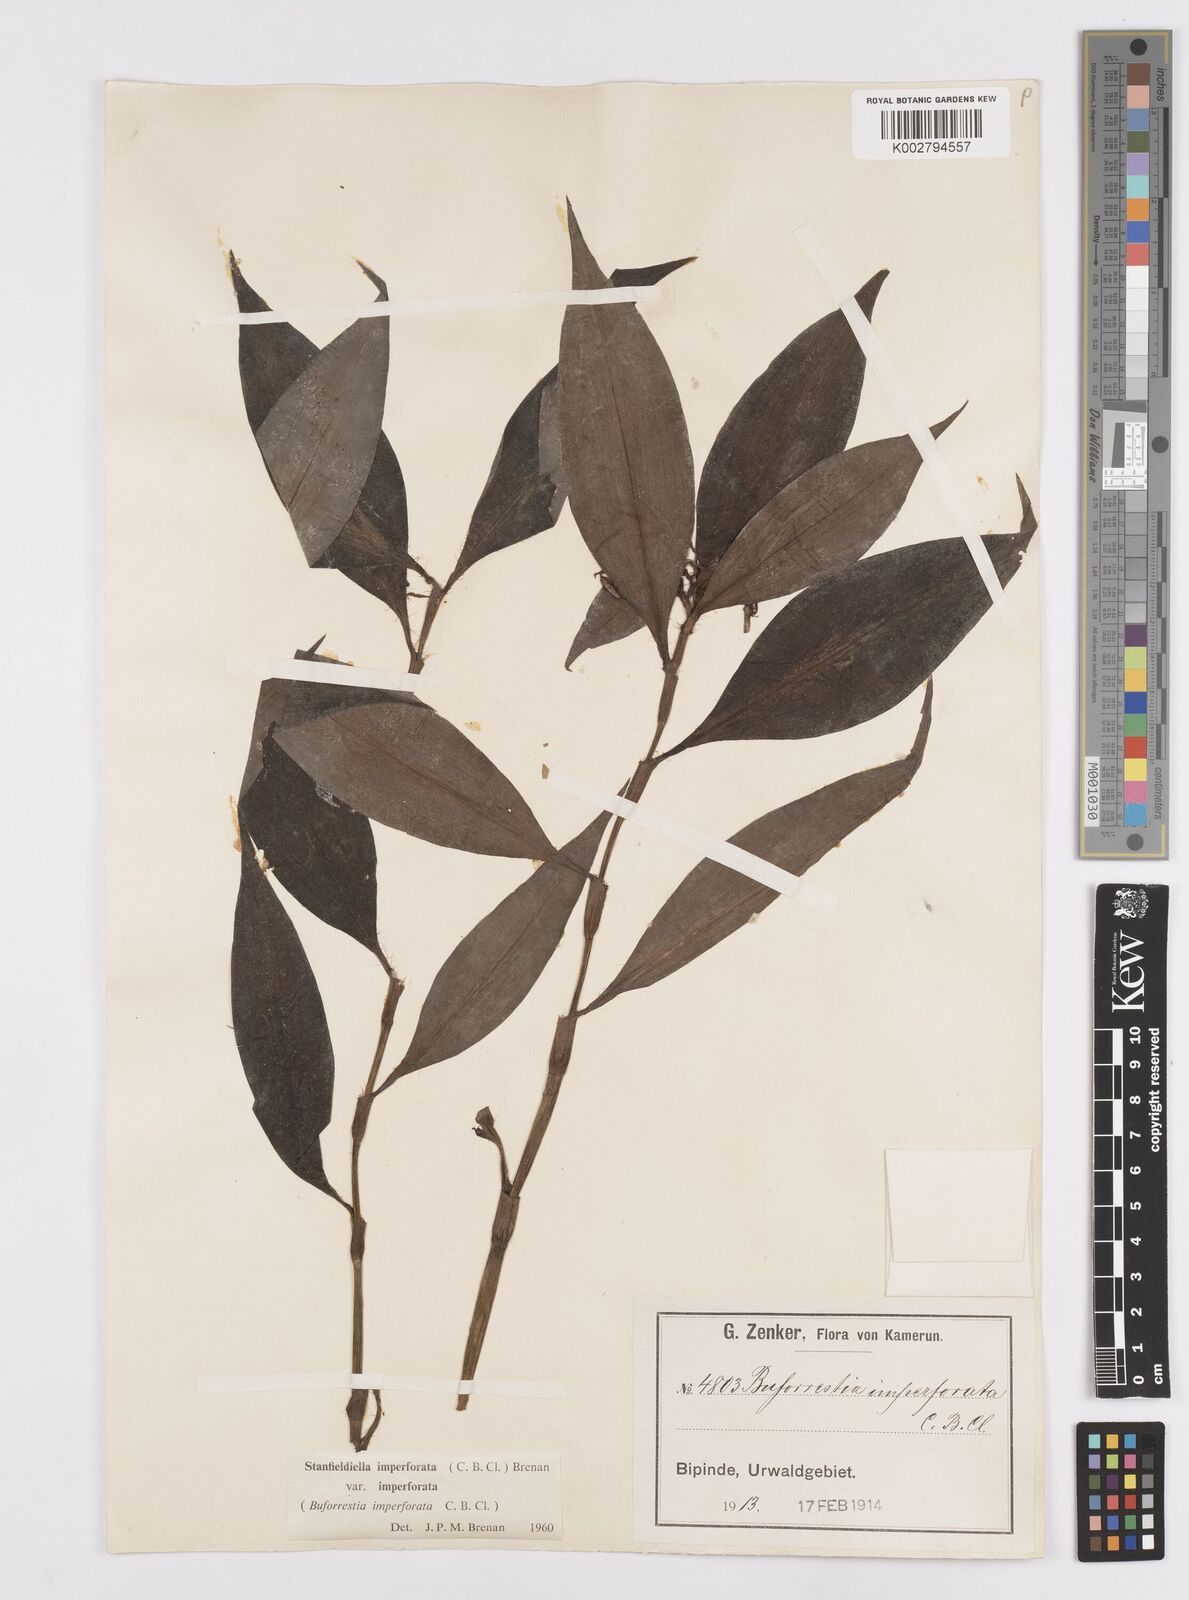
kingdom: Plantae
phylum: Tracheophyta
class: Liliopsida
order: Commelinales
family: Commelinaceae
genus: Stanfieldiella
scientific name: Stanfieldiella imperforata
